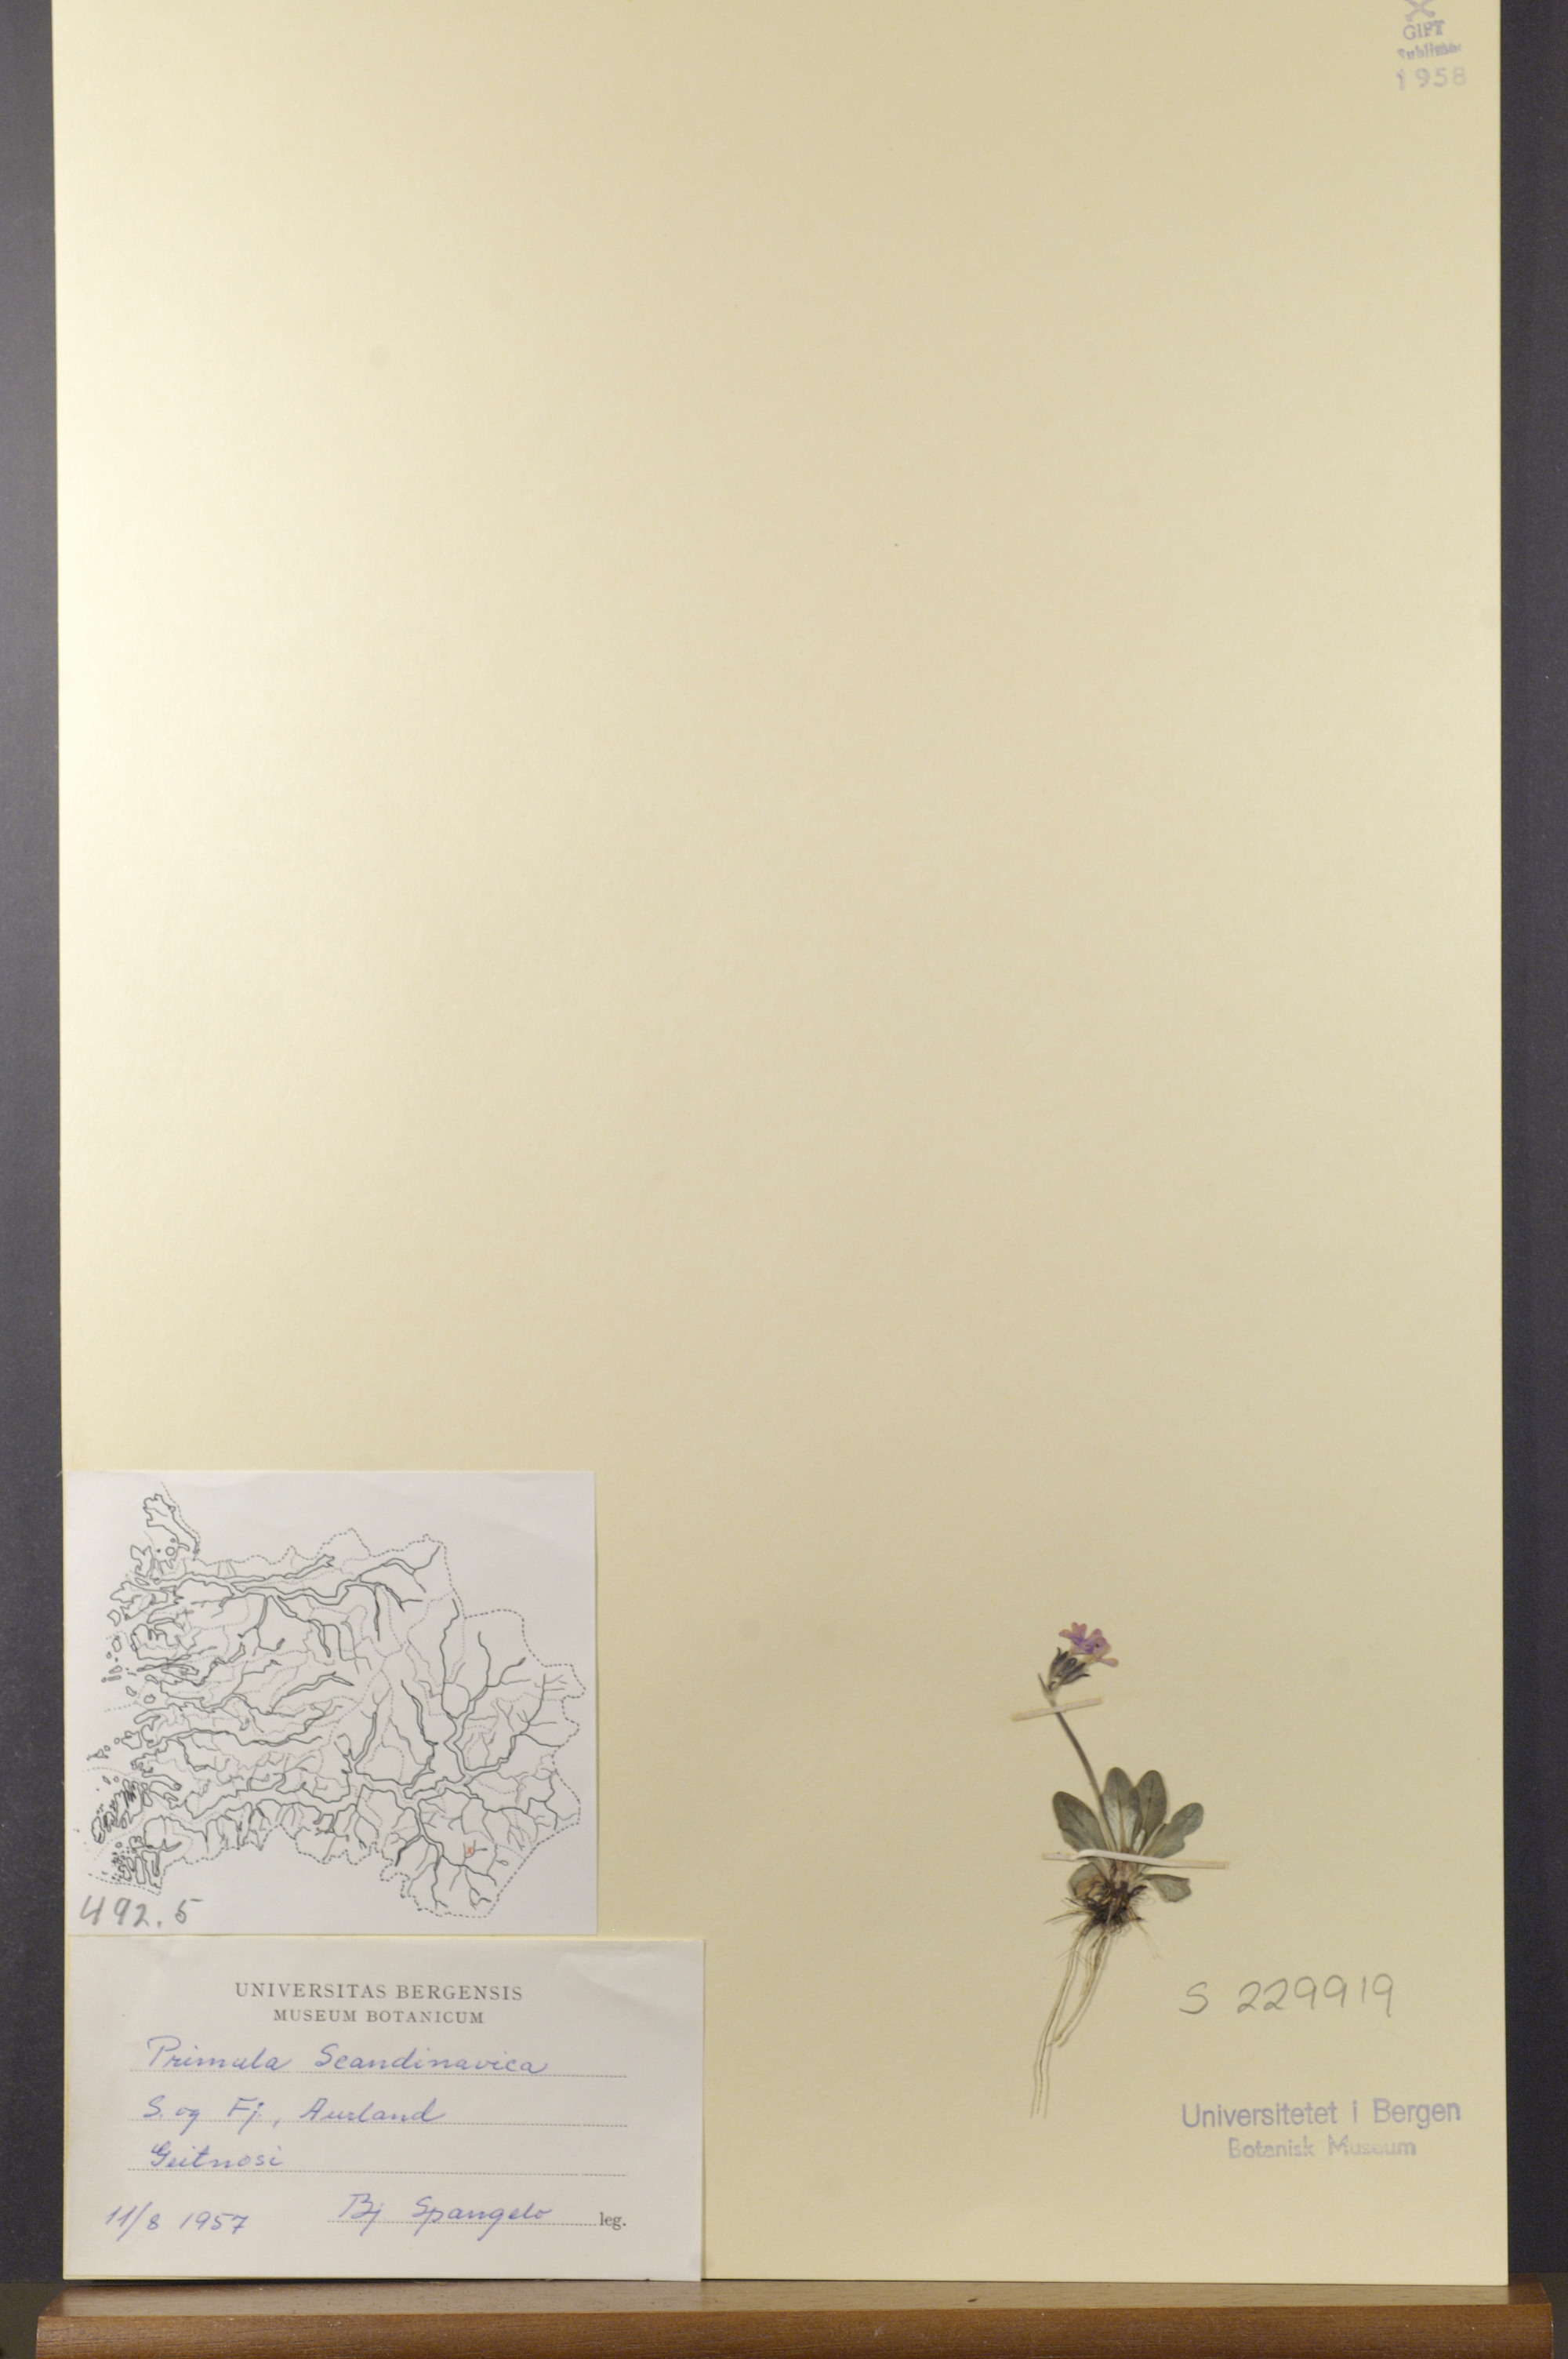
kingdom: Plantae
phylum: Tracheophyta
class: Magnoliopsida
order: Ericales
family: Primulaceae
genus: Primula
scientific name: Primula scandinavica
